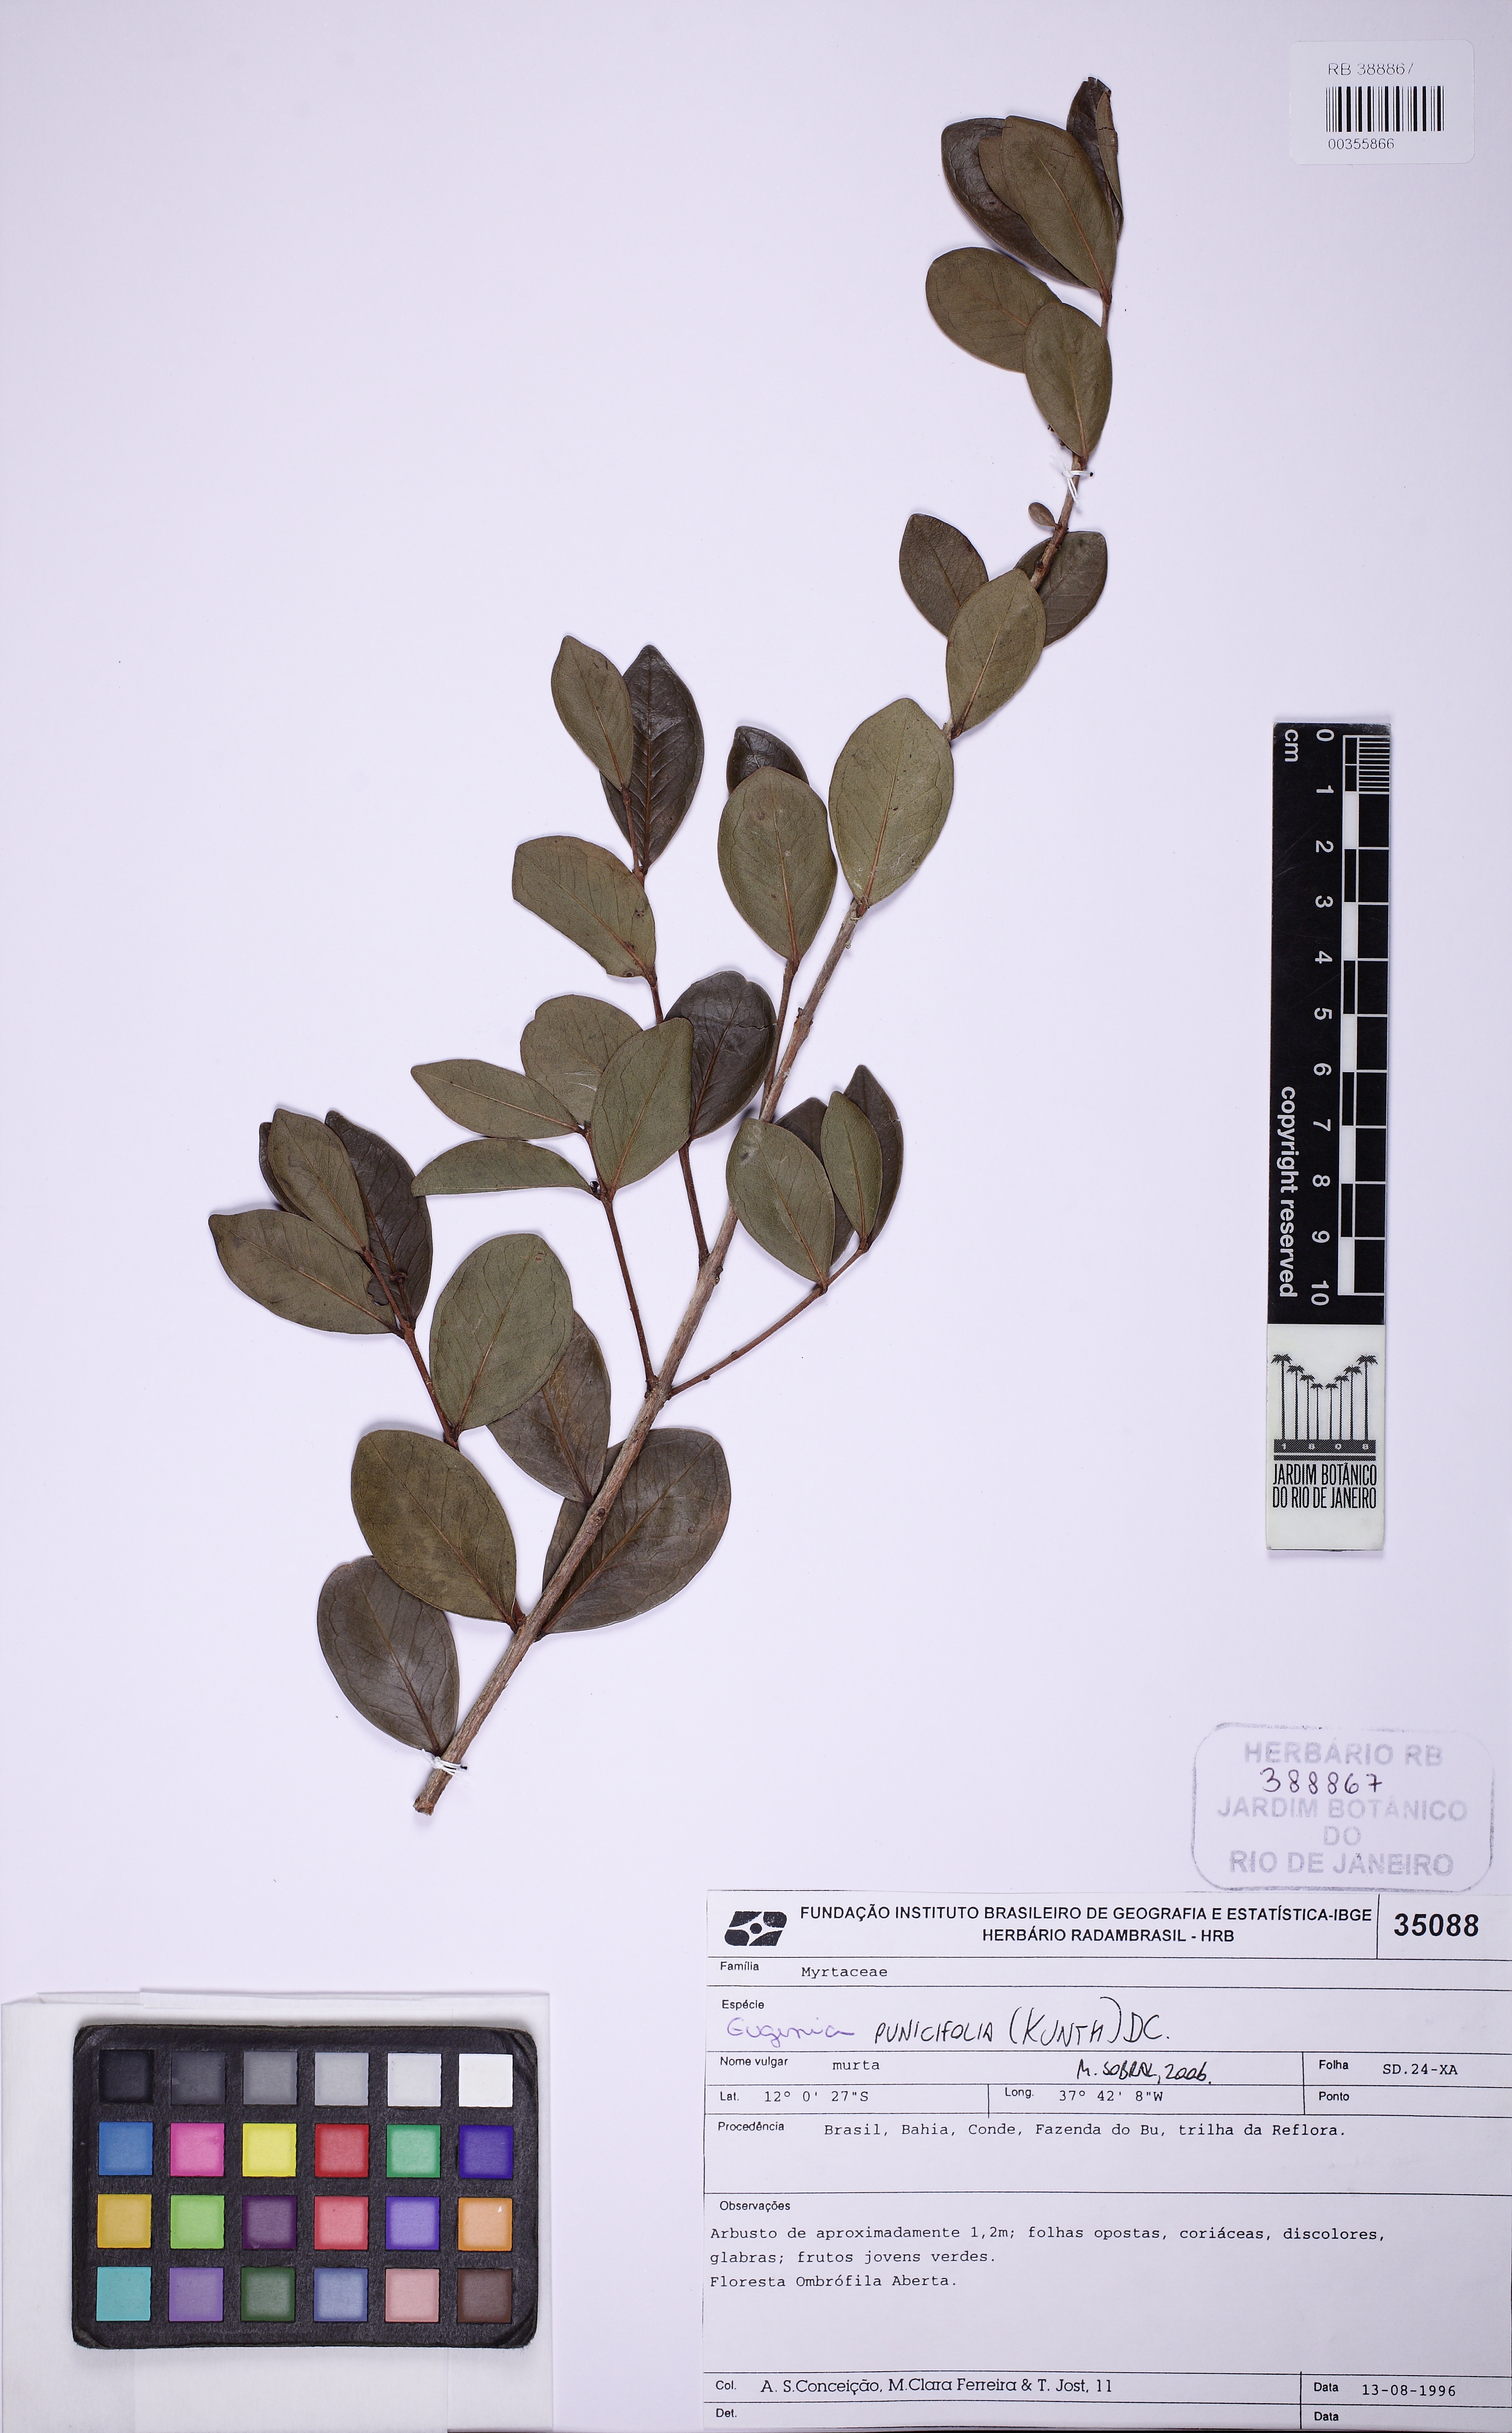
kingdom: Plantae
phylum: Tracheophyta
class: Magnoliopsida
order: Myrtales
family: Myrtaceae
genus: Eugenia
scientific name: Eugenia punicifolia
